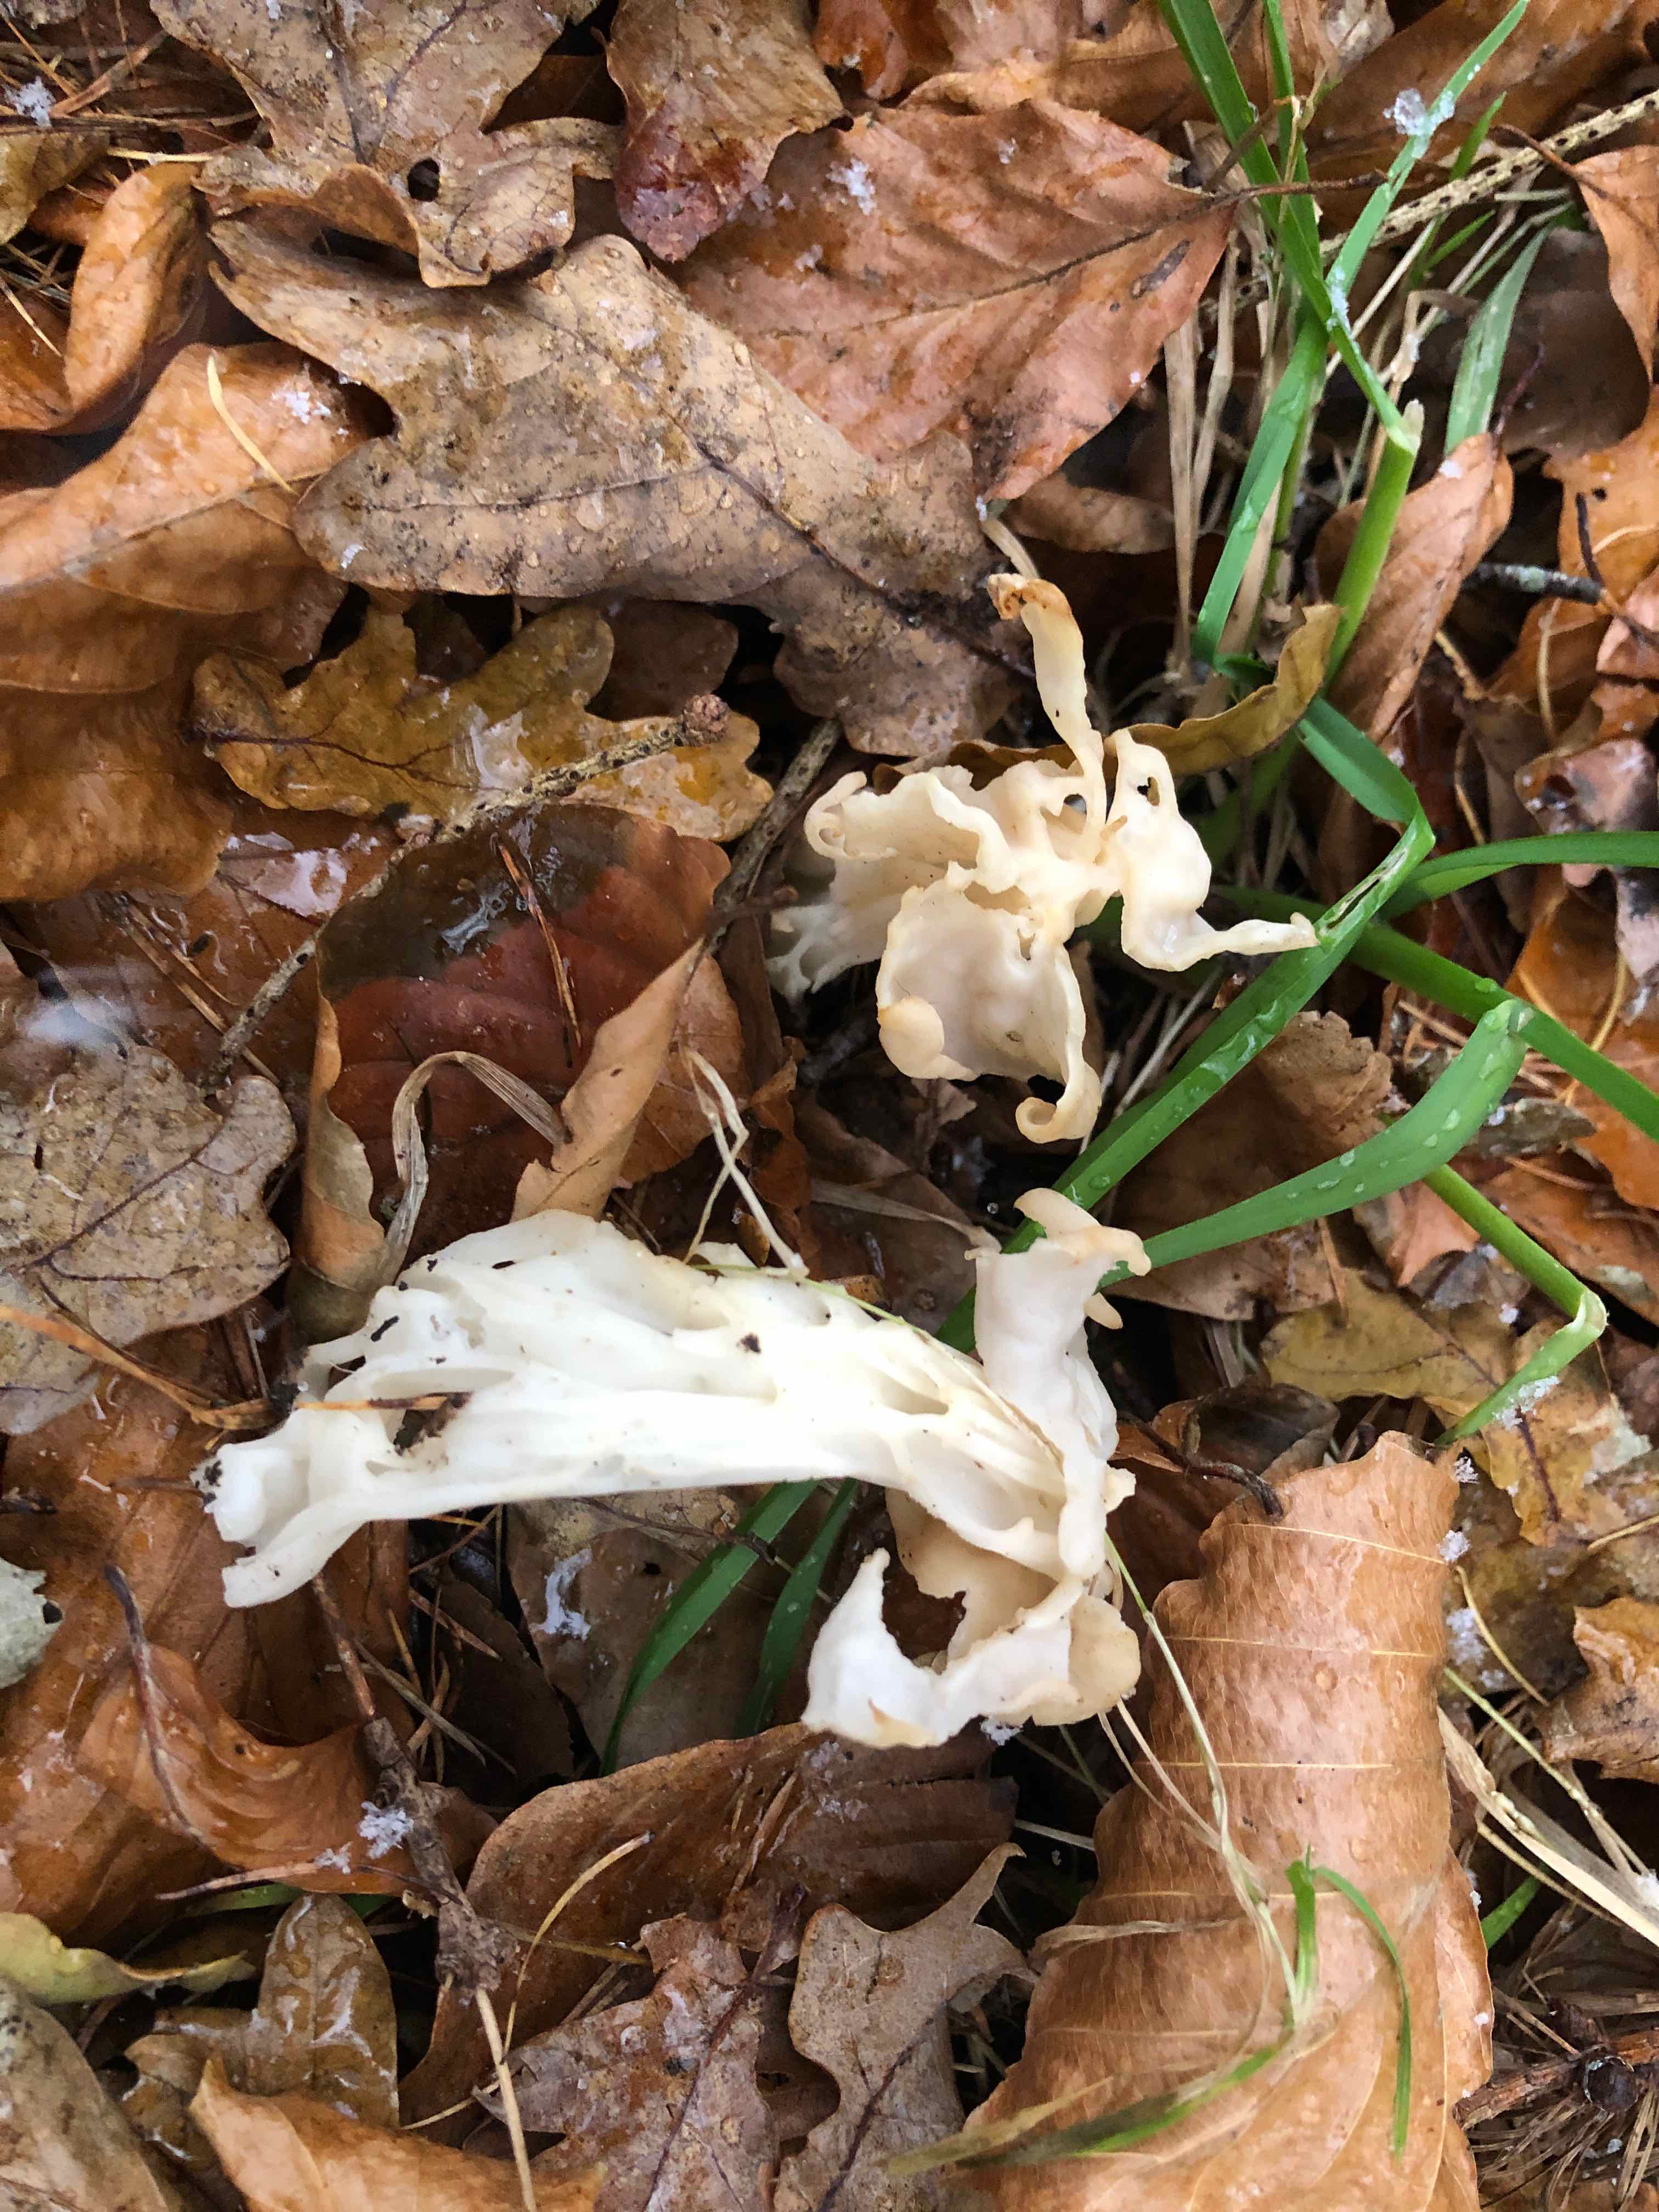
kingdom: Fungi
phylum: Ascomycota
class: Pezizomycetes
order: Pezizales
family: Helvellaceae
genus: Helvella
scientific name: Helvella crispa
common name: kruset foldhat
